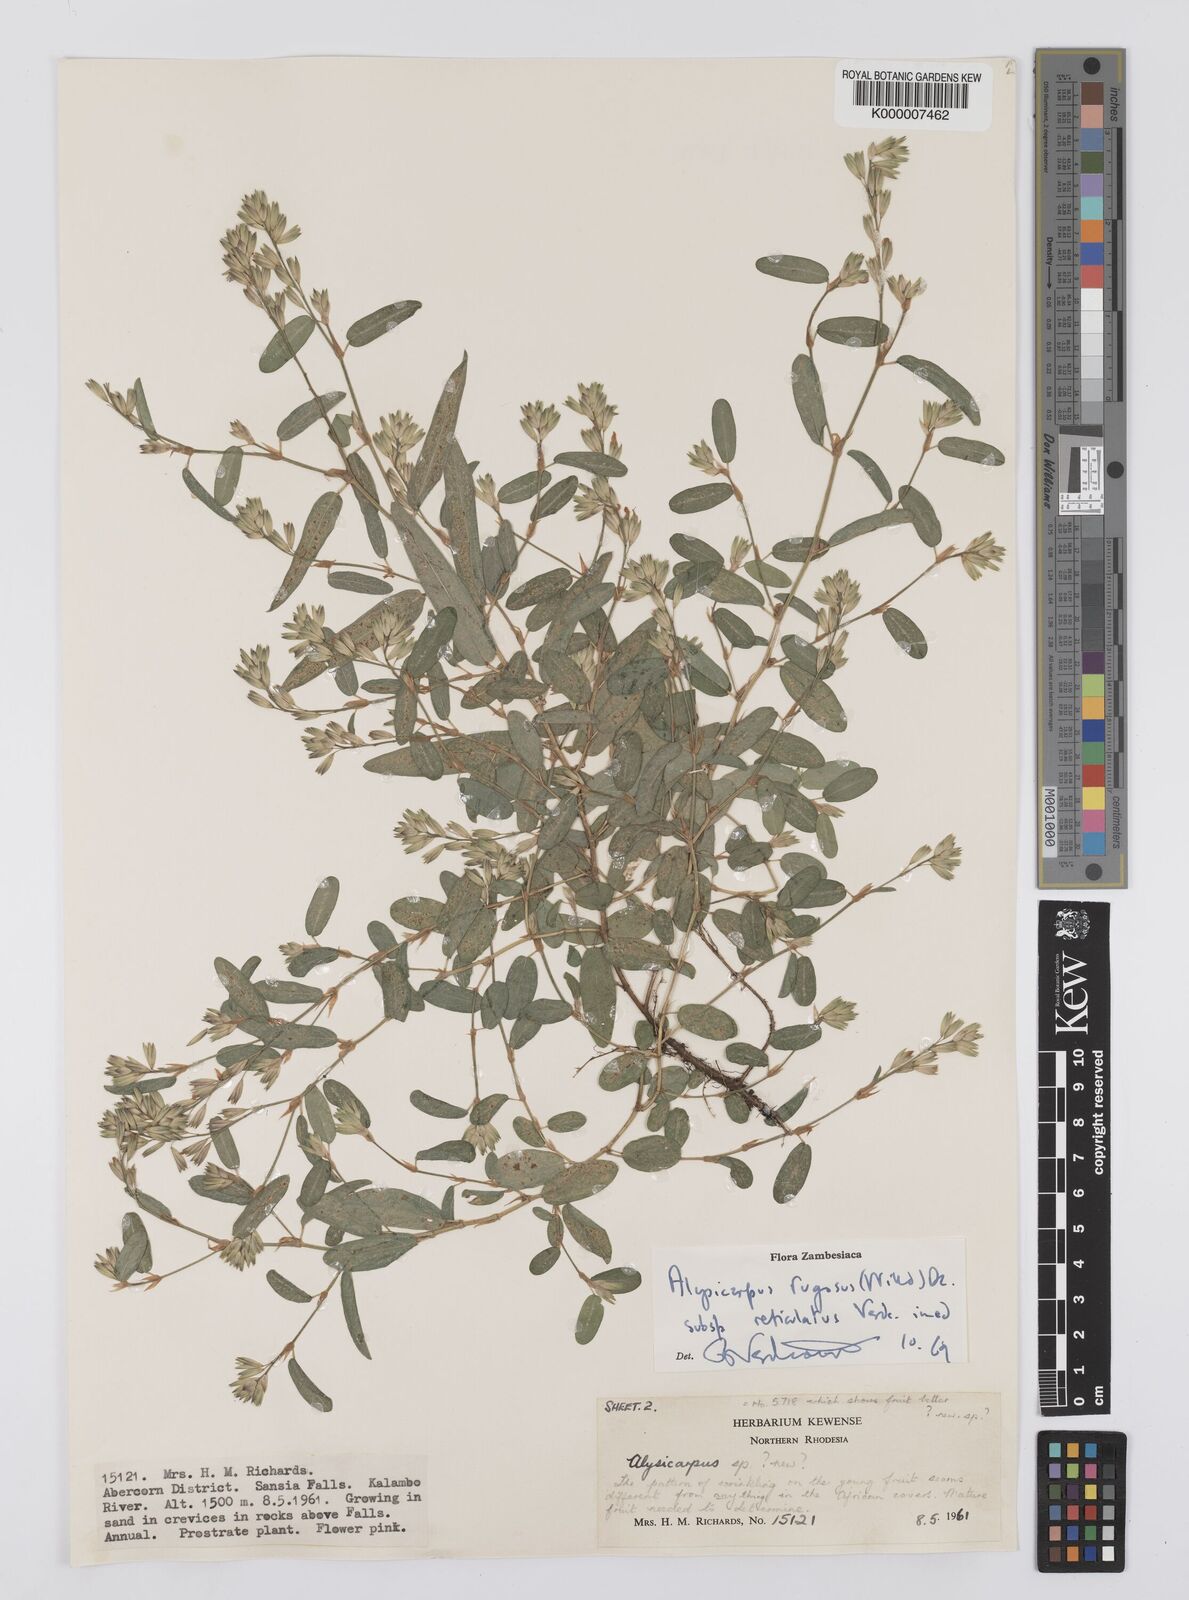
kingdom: Plantae
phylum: Tracheophyta
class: Magnoliopsida
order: Fabales
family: Fabaceae
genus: Alysicarpus
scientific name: Alysicarpus rugosus
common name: Red moneywort
